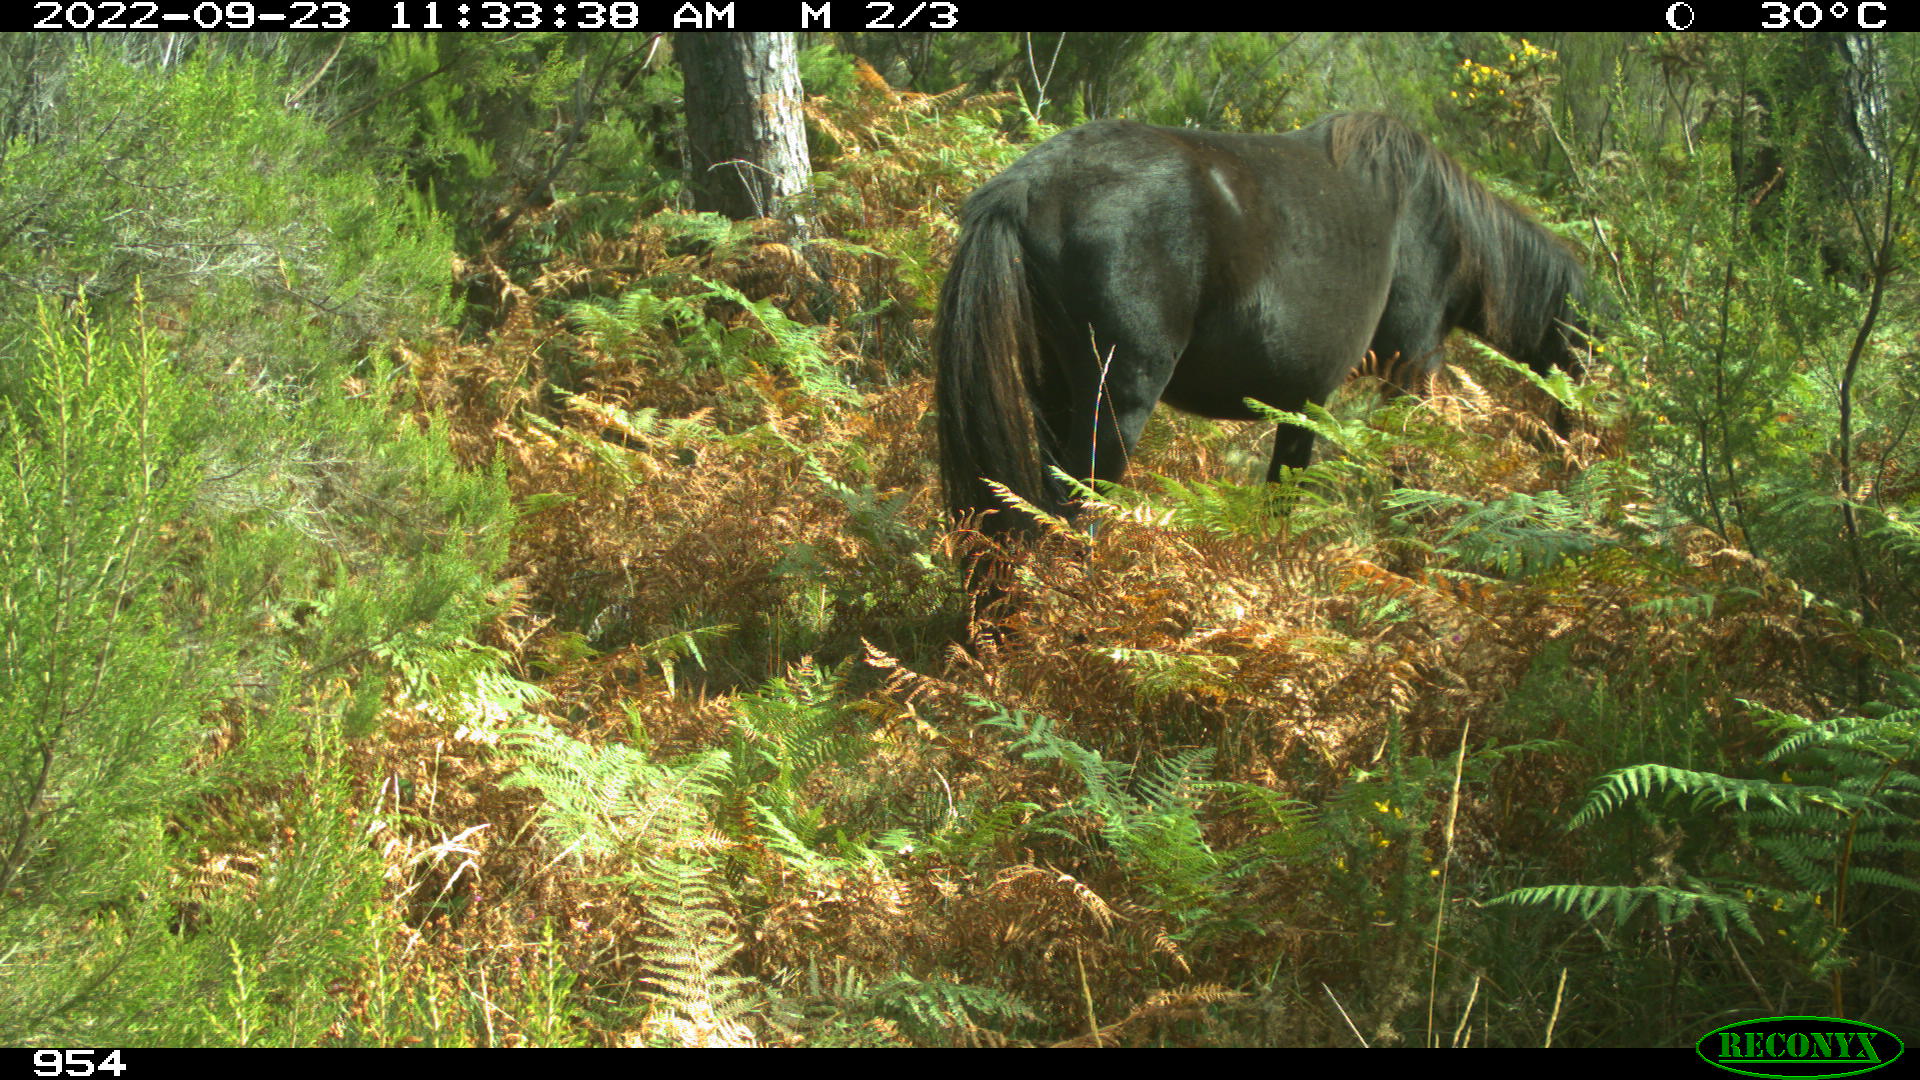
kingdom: Animalia
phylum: Chordata
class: Mammalia
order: Perissodactyla
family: Equidae
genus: Equus
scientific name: Equus caballus
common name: Horse
